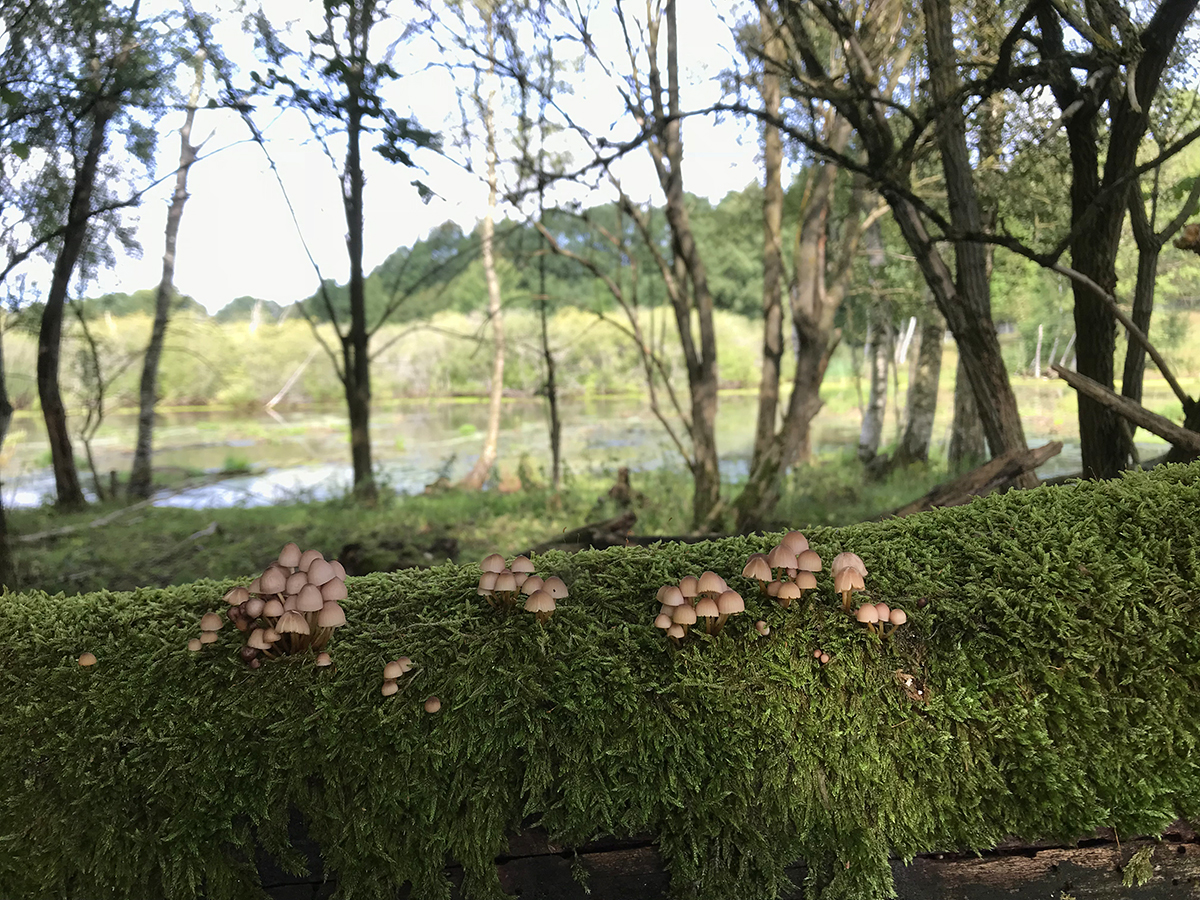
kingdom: Fungi
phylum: Basidiomycota
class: Agaricomycetes
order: Agaricales
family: Mycenaceae
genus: Mycena
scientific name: Mycena renati
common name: smuk huesvamp
